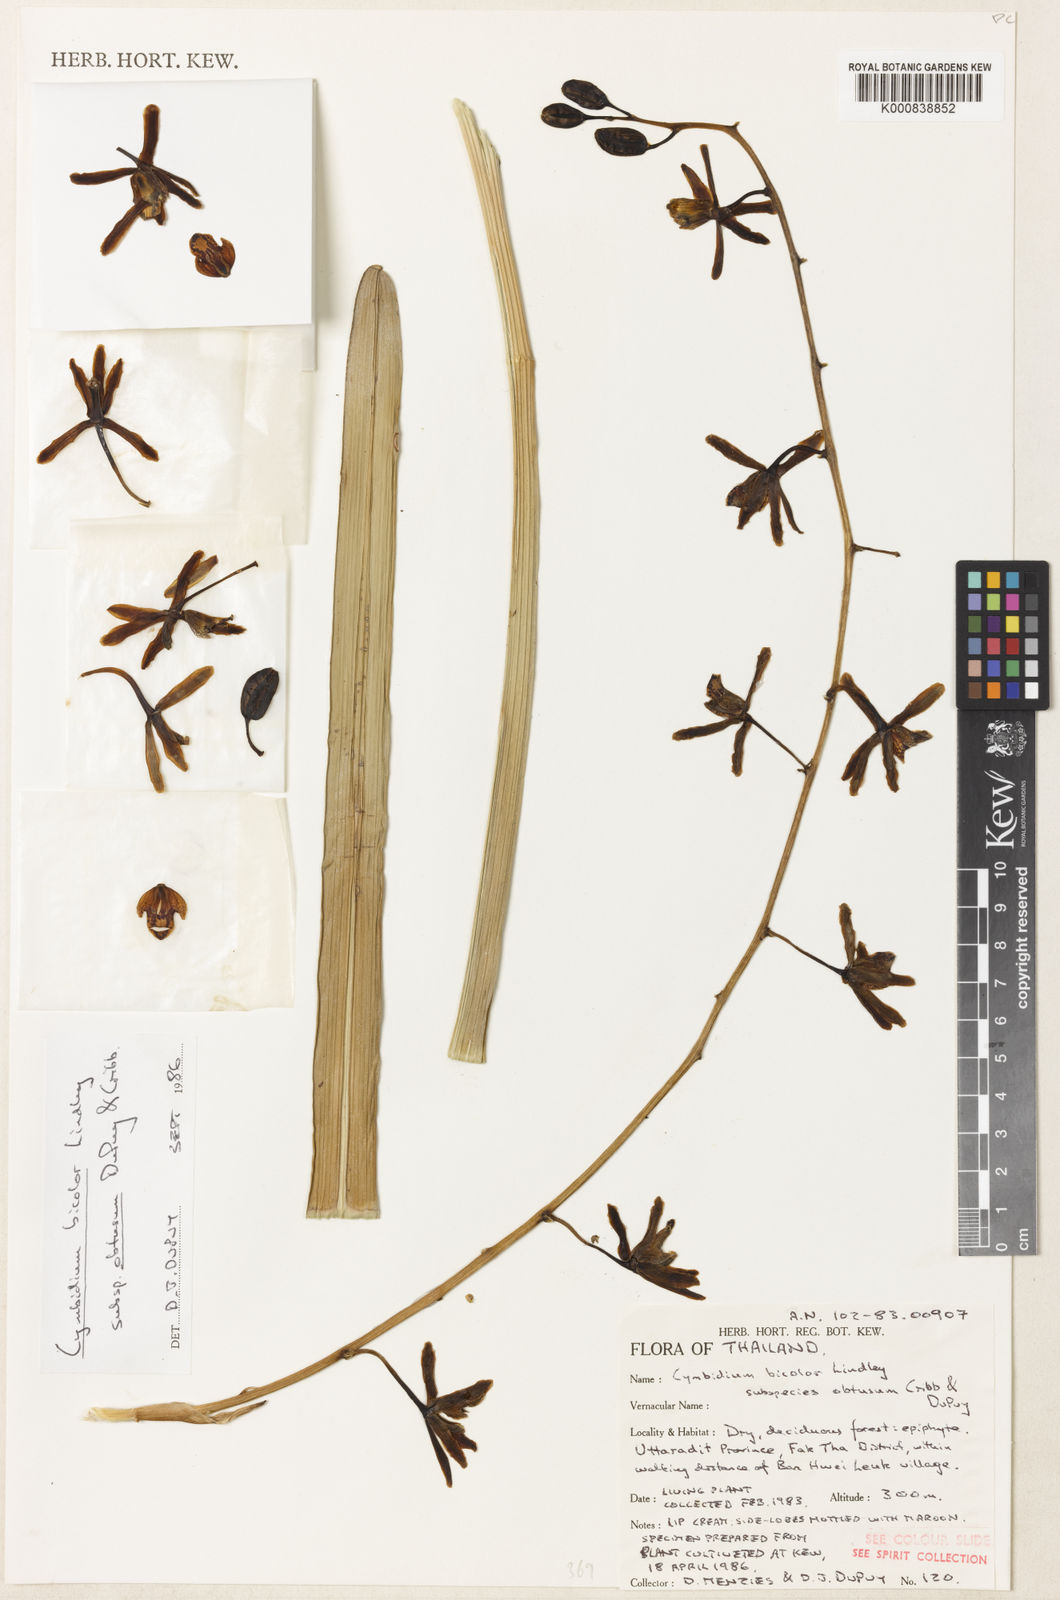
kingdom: Plantae
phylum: Tracheophyta
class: Liliopsida
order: Asparagales
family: Orchidaceae
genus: Cymbidium
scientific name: Cymbidium crassifolium
